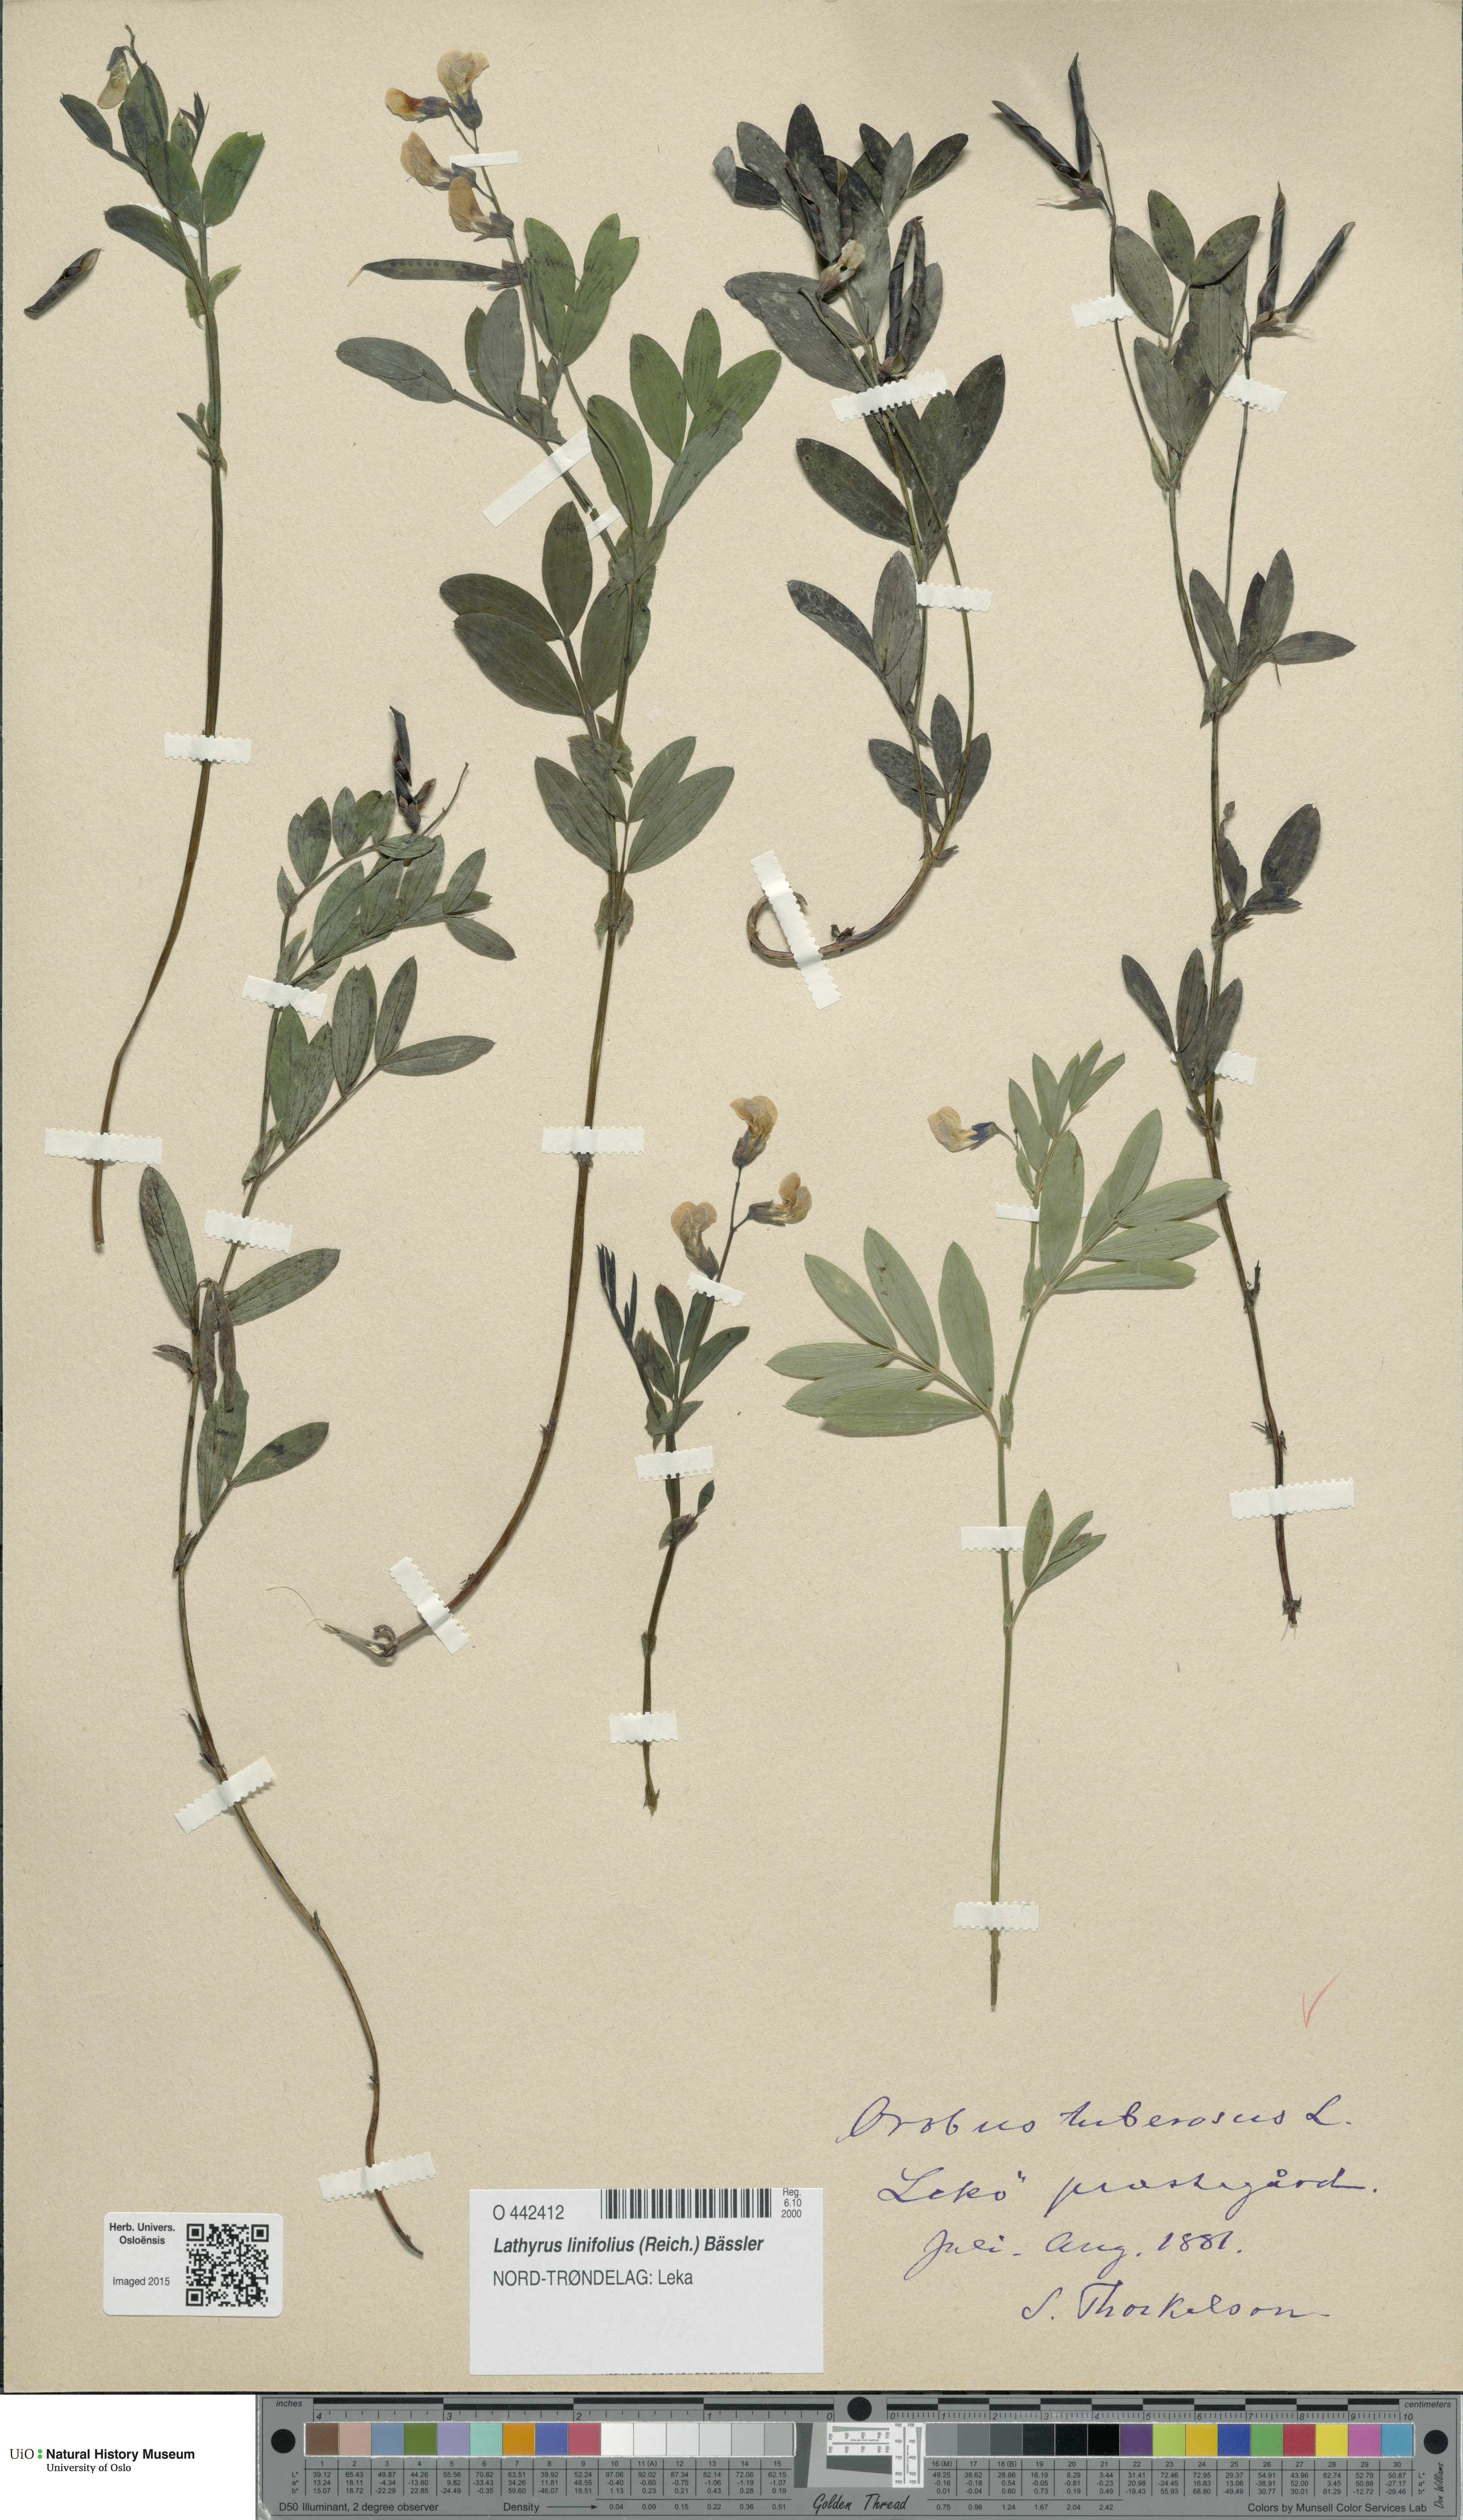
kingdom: Plantae
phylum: Tracheophyta
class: Magnoliopsida
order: Fabales
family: Fabaceae
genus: Lathyrus
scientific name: Lathyrus linifolius
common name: Bitter-vetch
